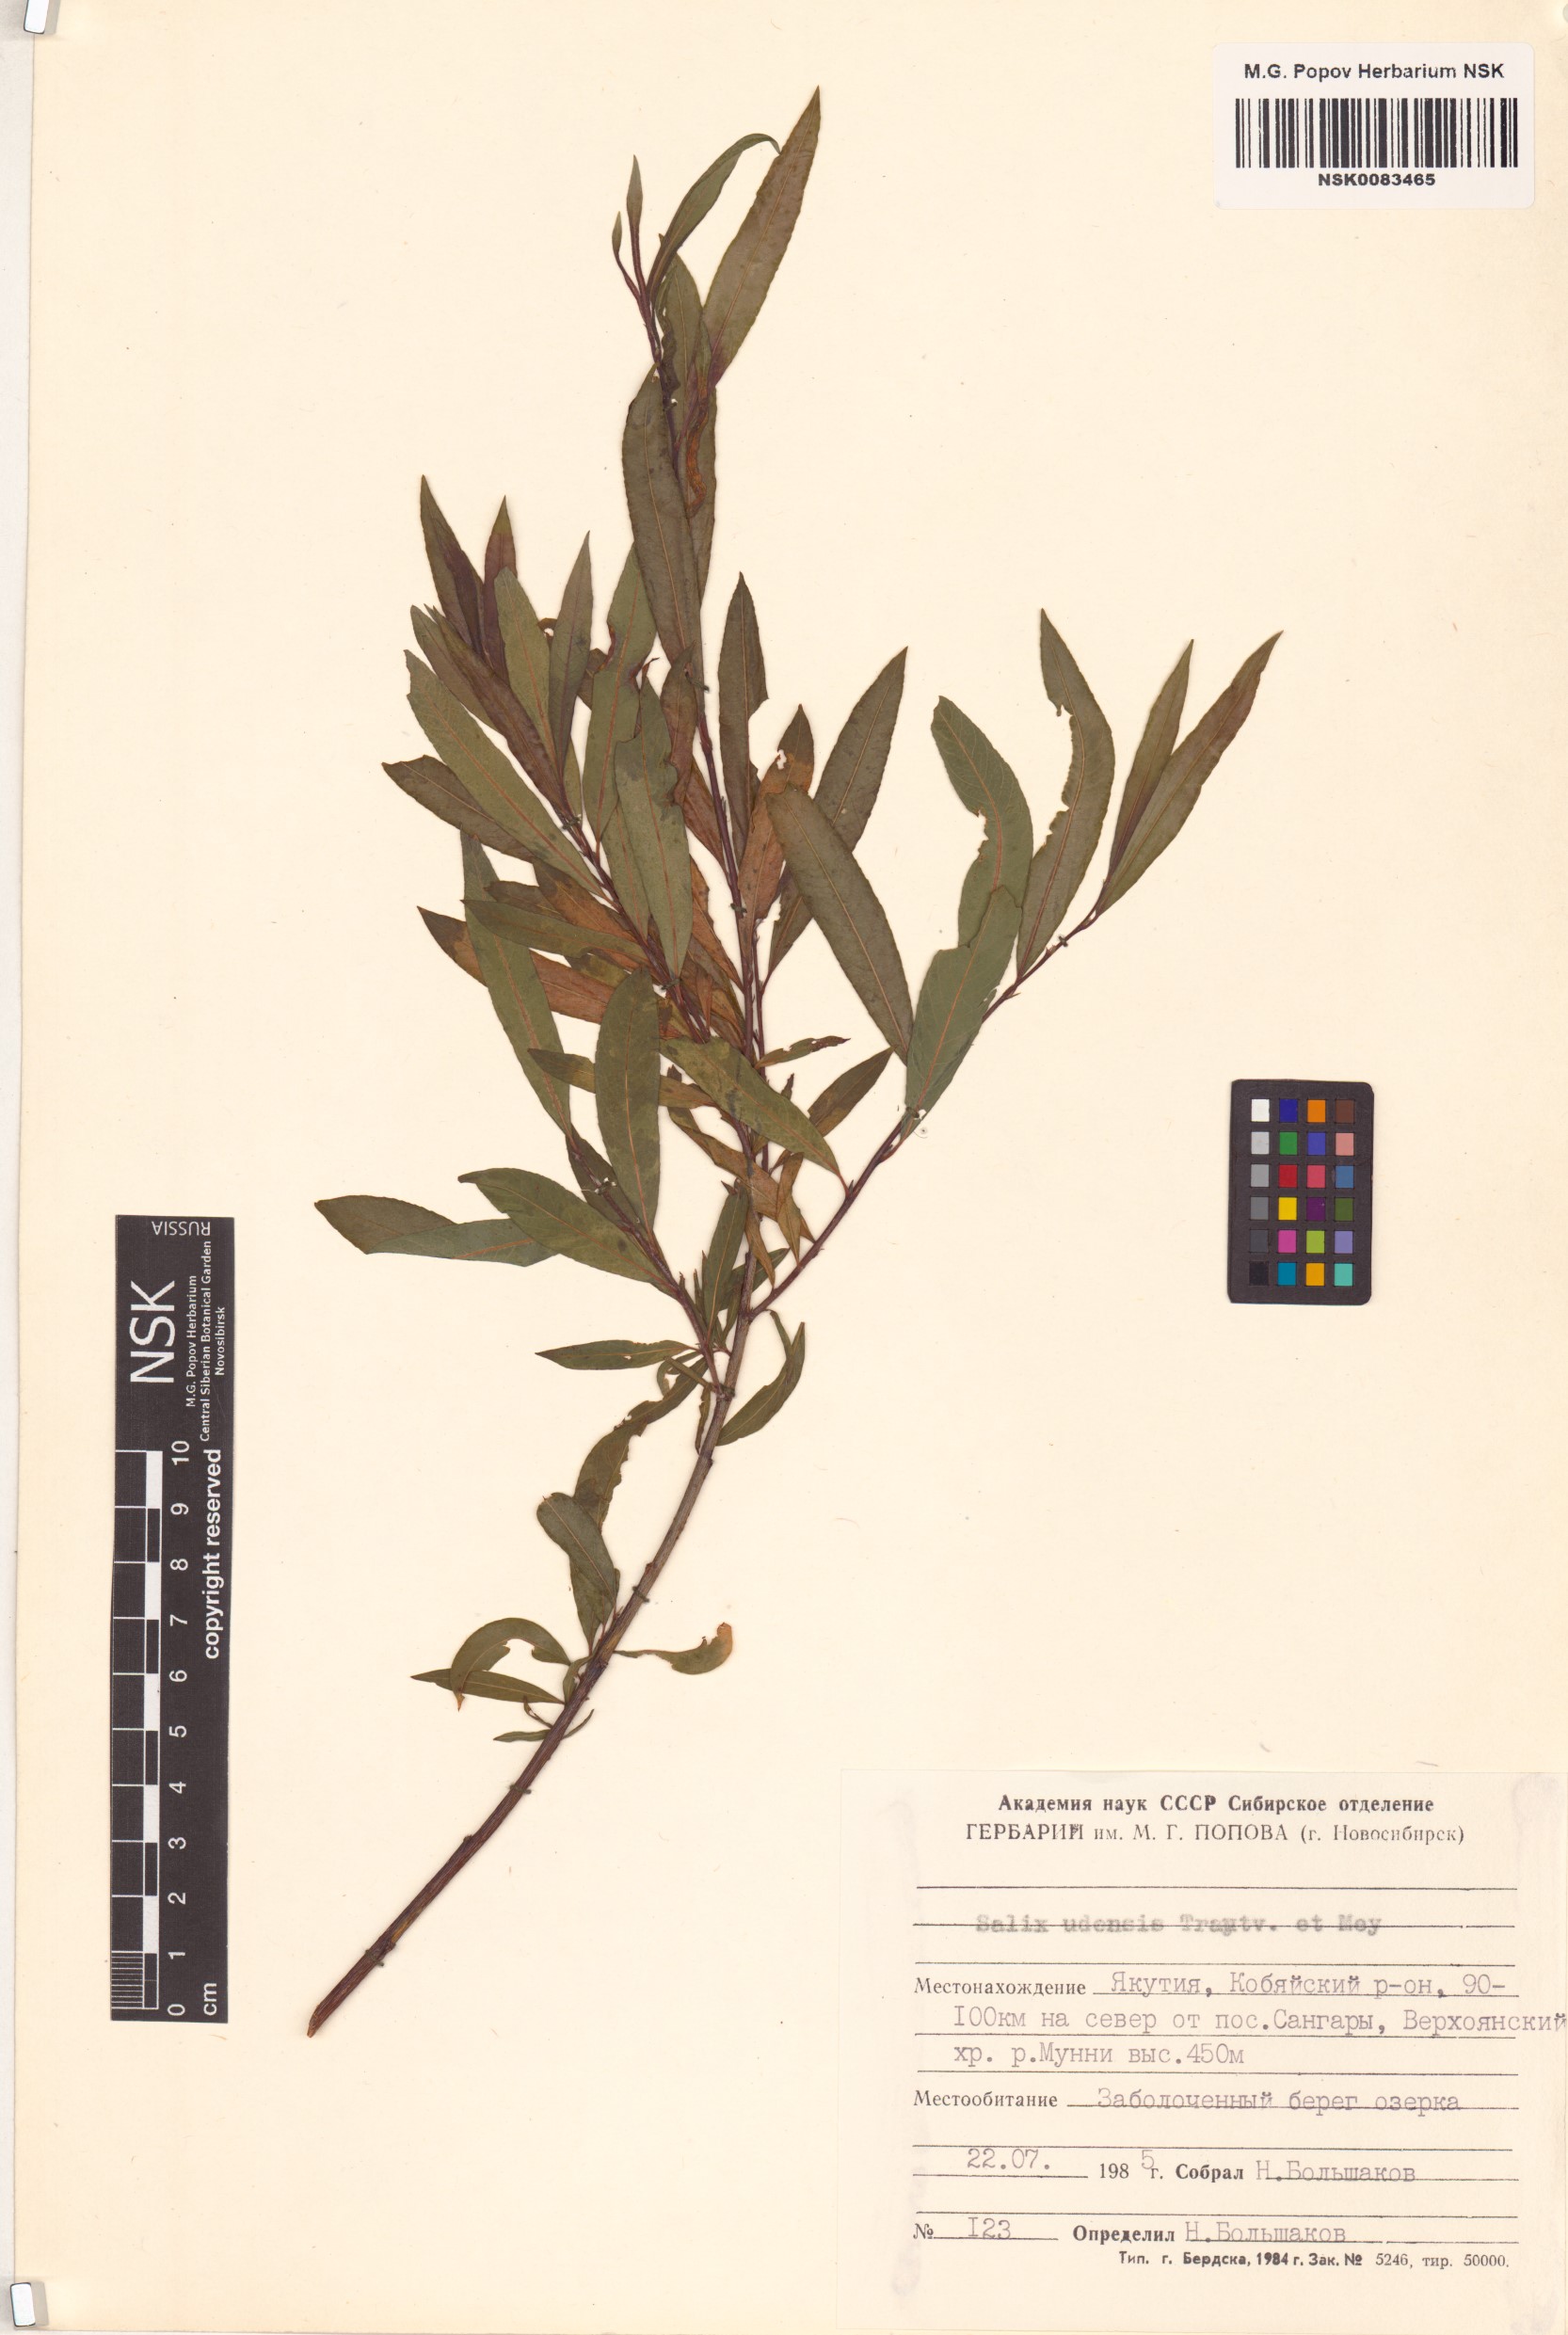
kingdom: Plantae
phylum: Tracheophyta
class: Magnoliopsida
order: Malpighiales
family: Salicaceae
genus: Salix
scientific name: Salix udensis
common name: Sachalin willow
